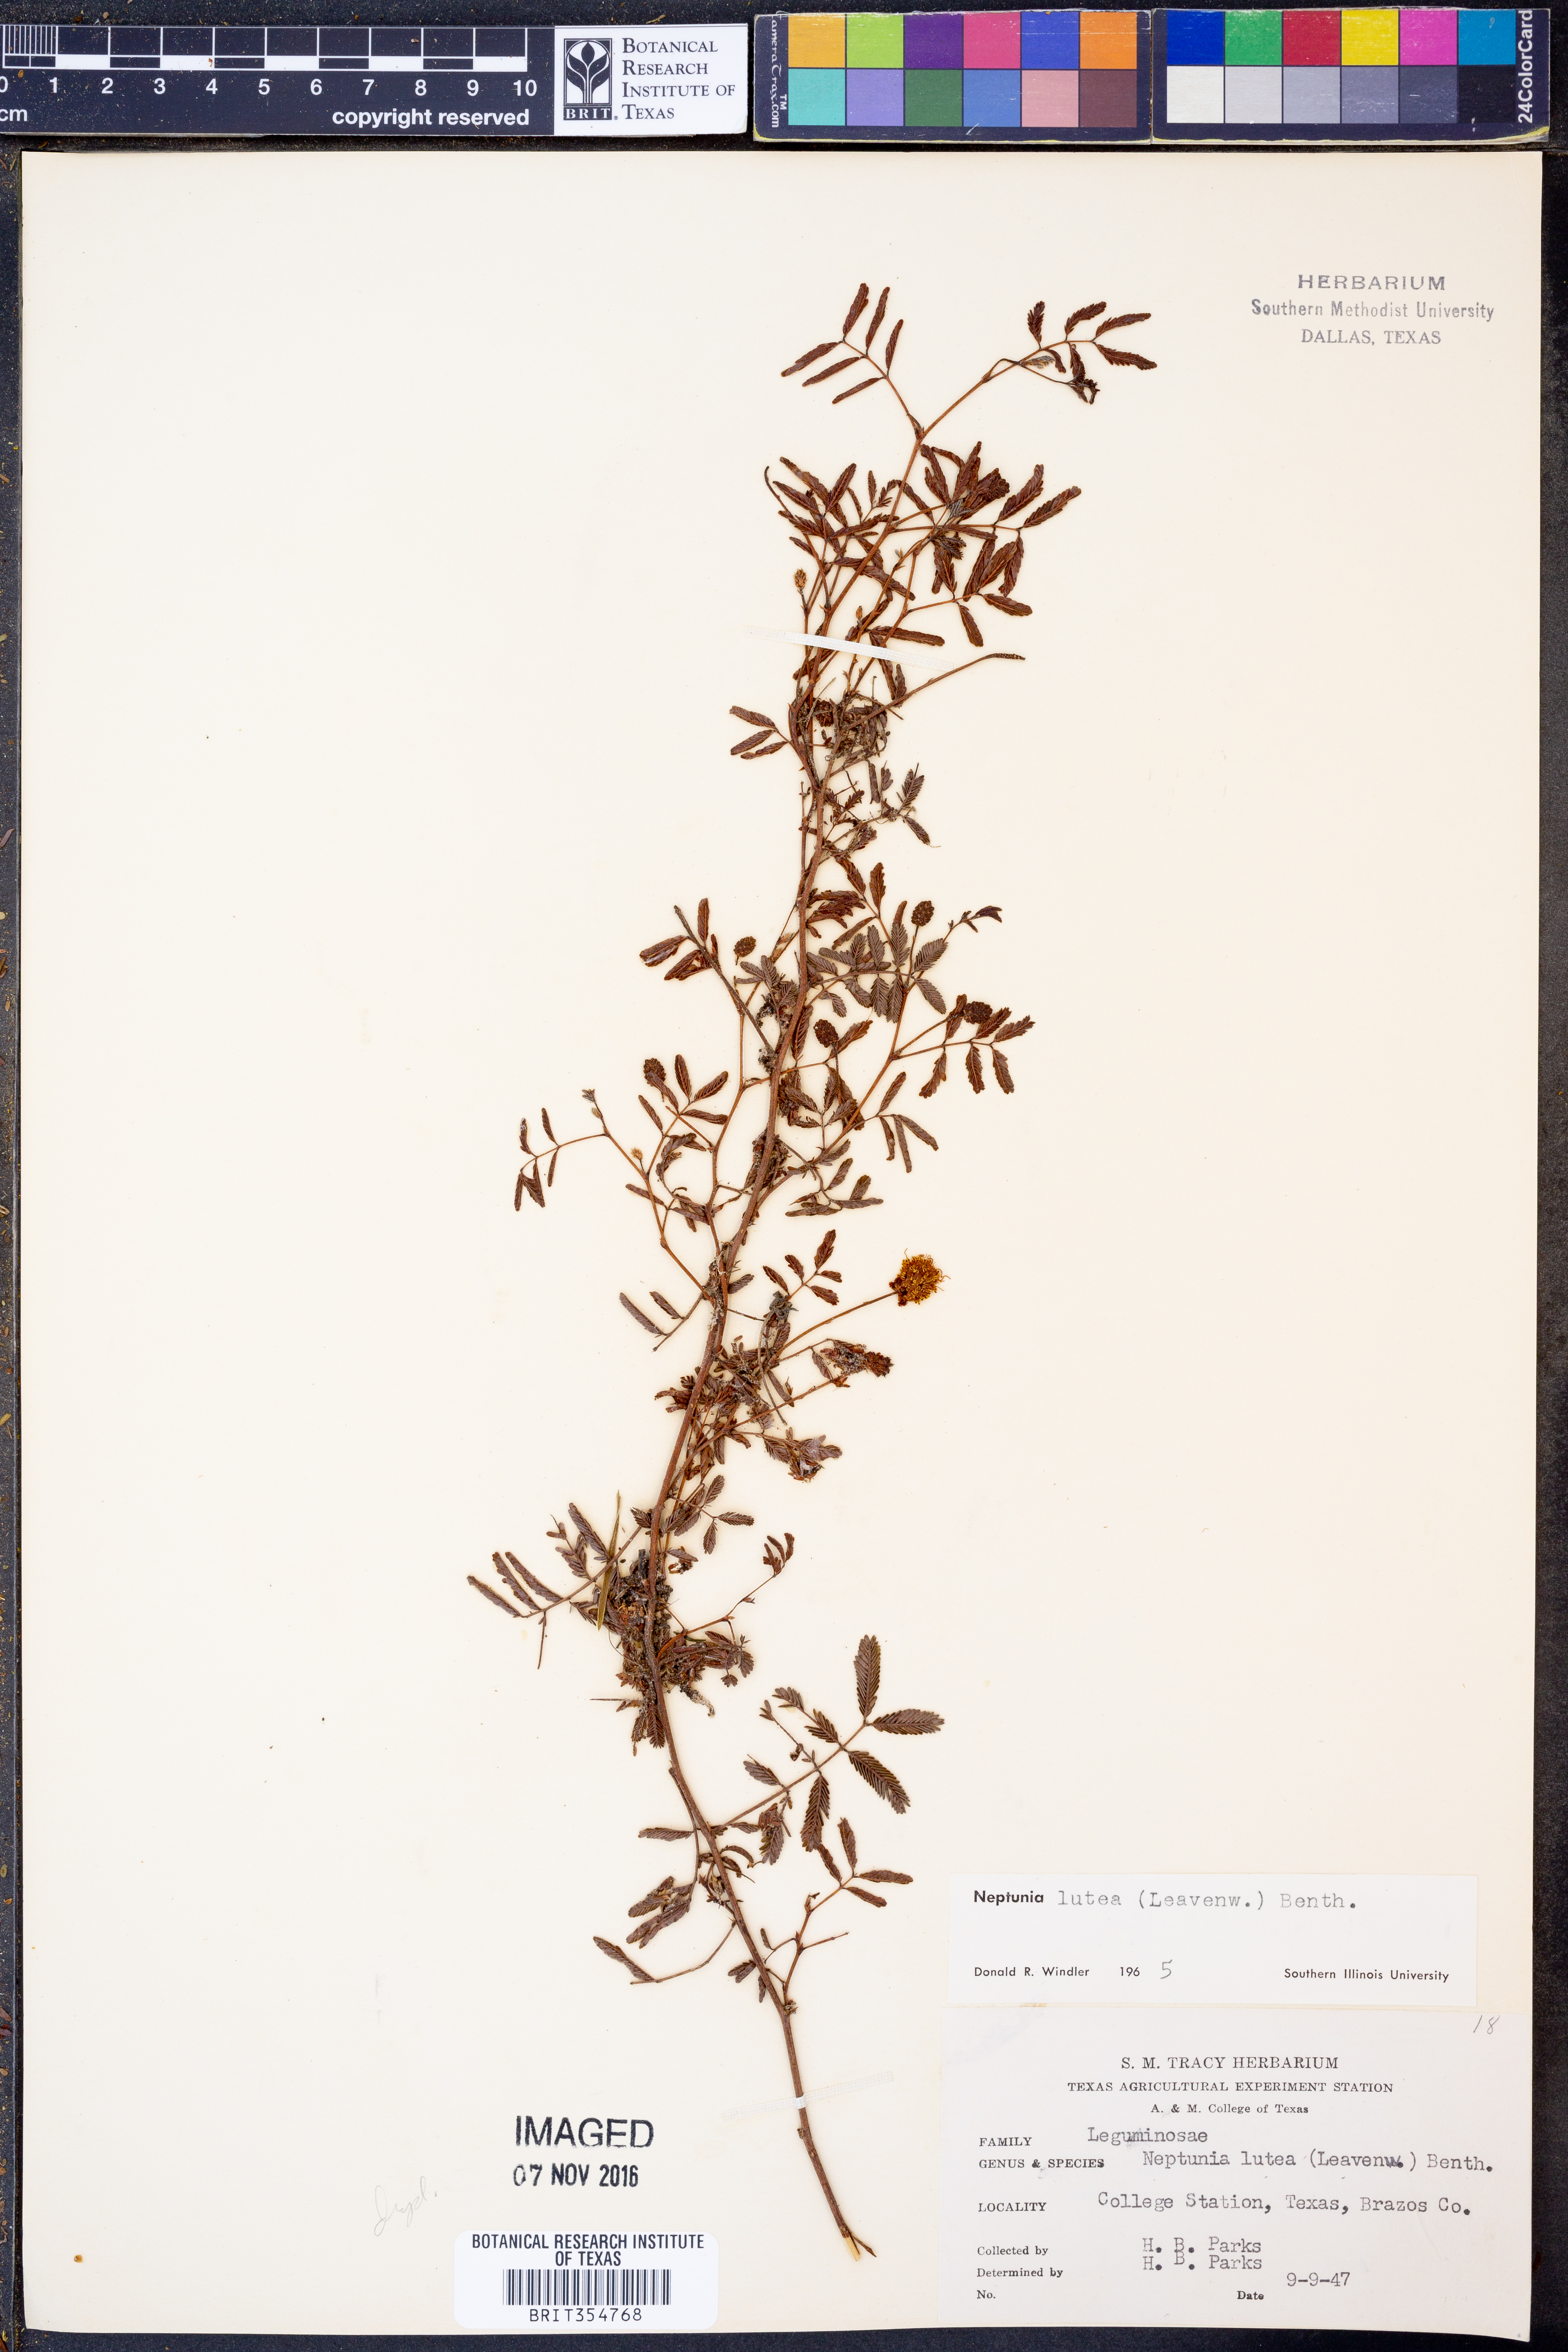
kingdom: Plantae
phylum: Tracheophyta
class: Magnoliopsida
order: Fabales
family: Fabaceae
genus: Neptunia
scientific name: Neptunia lutea
